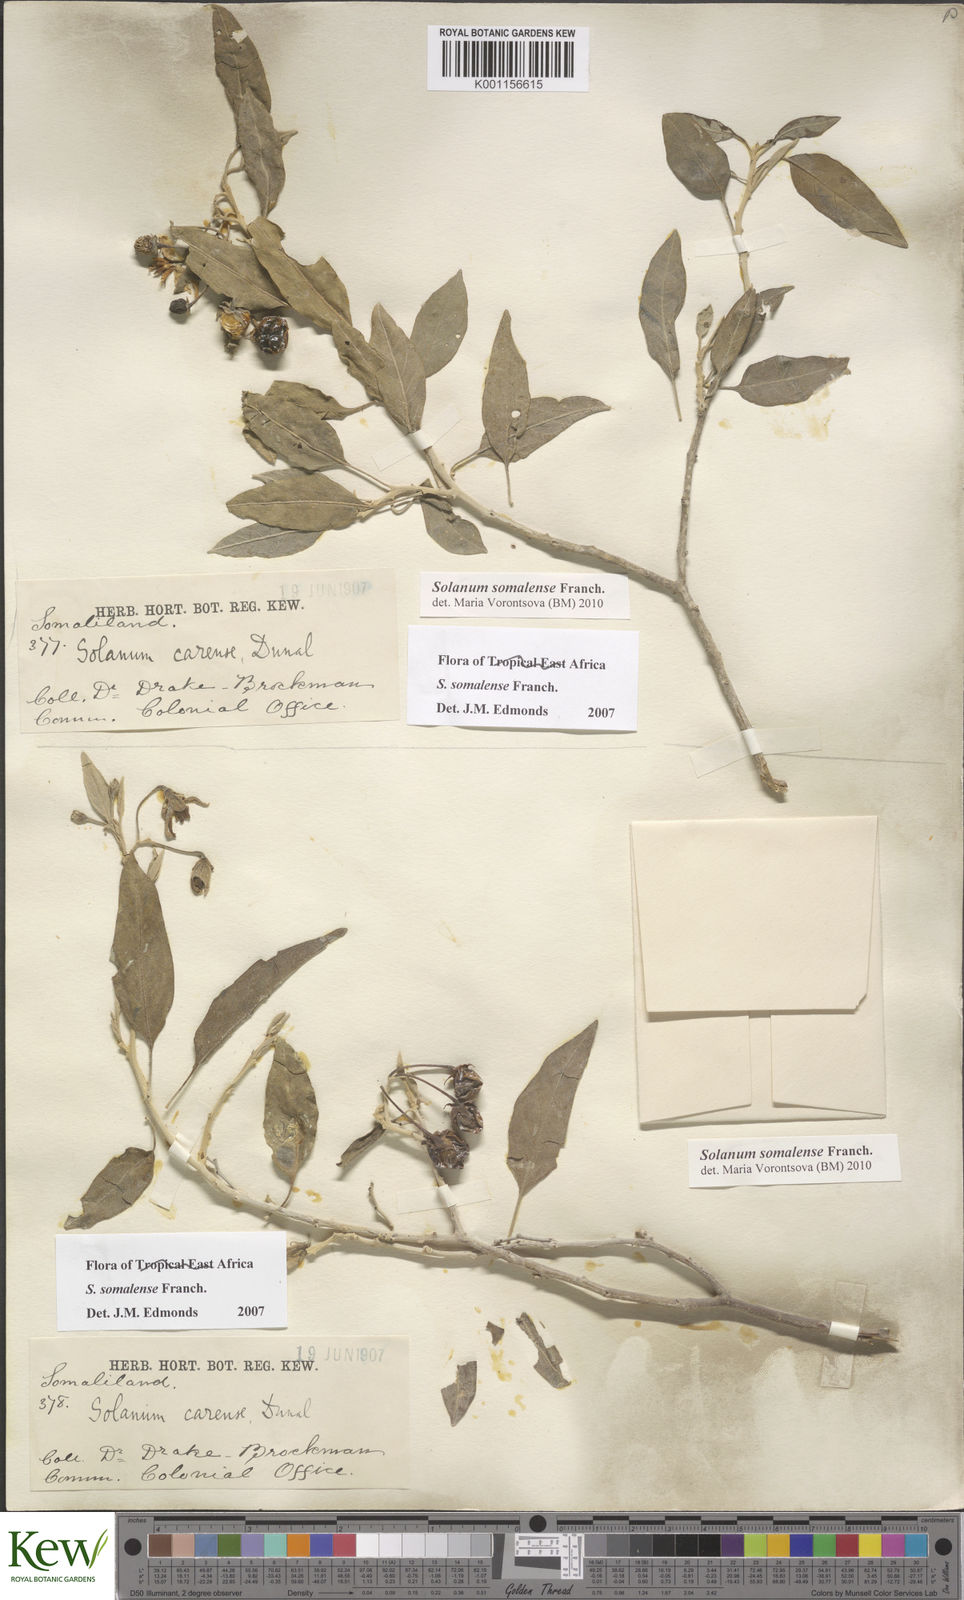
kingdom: Plantae
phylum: Tracheophyta
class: Magnoliopsida
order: Solanales
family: Solanaceae
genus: Solanum
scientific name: Solanum somalense
